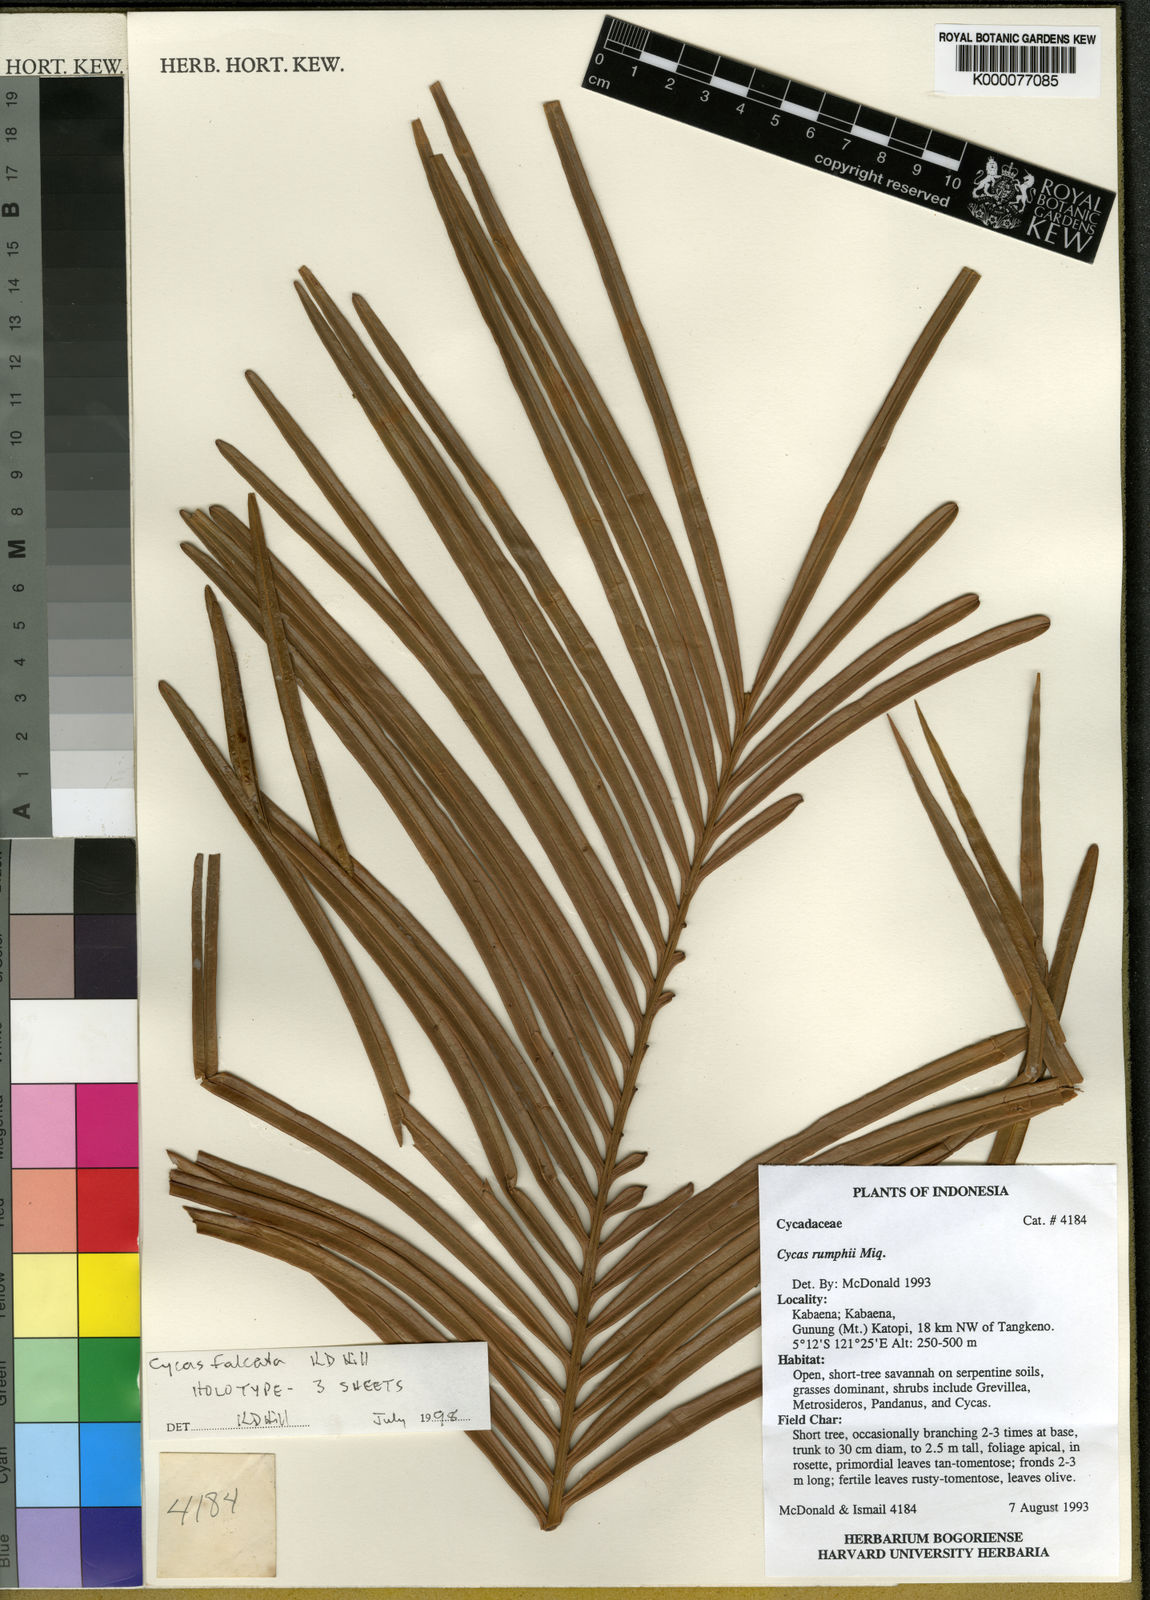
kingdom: Plantae
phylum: Tracheophyta
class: Cycadopsida
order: Cycadales
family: Cycadaceae
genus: Cycas
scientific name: Cycas falcata
